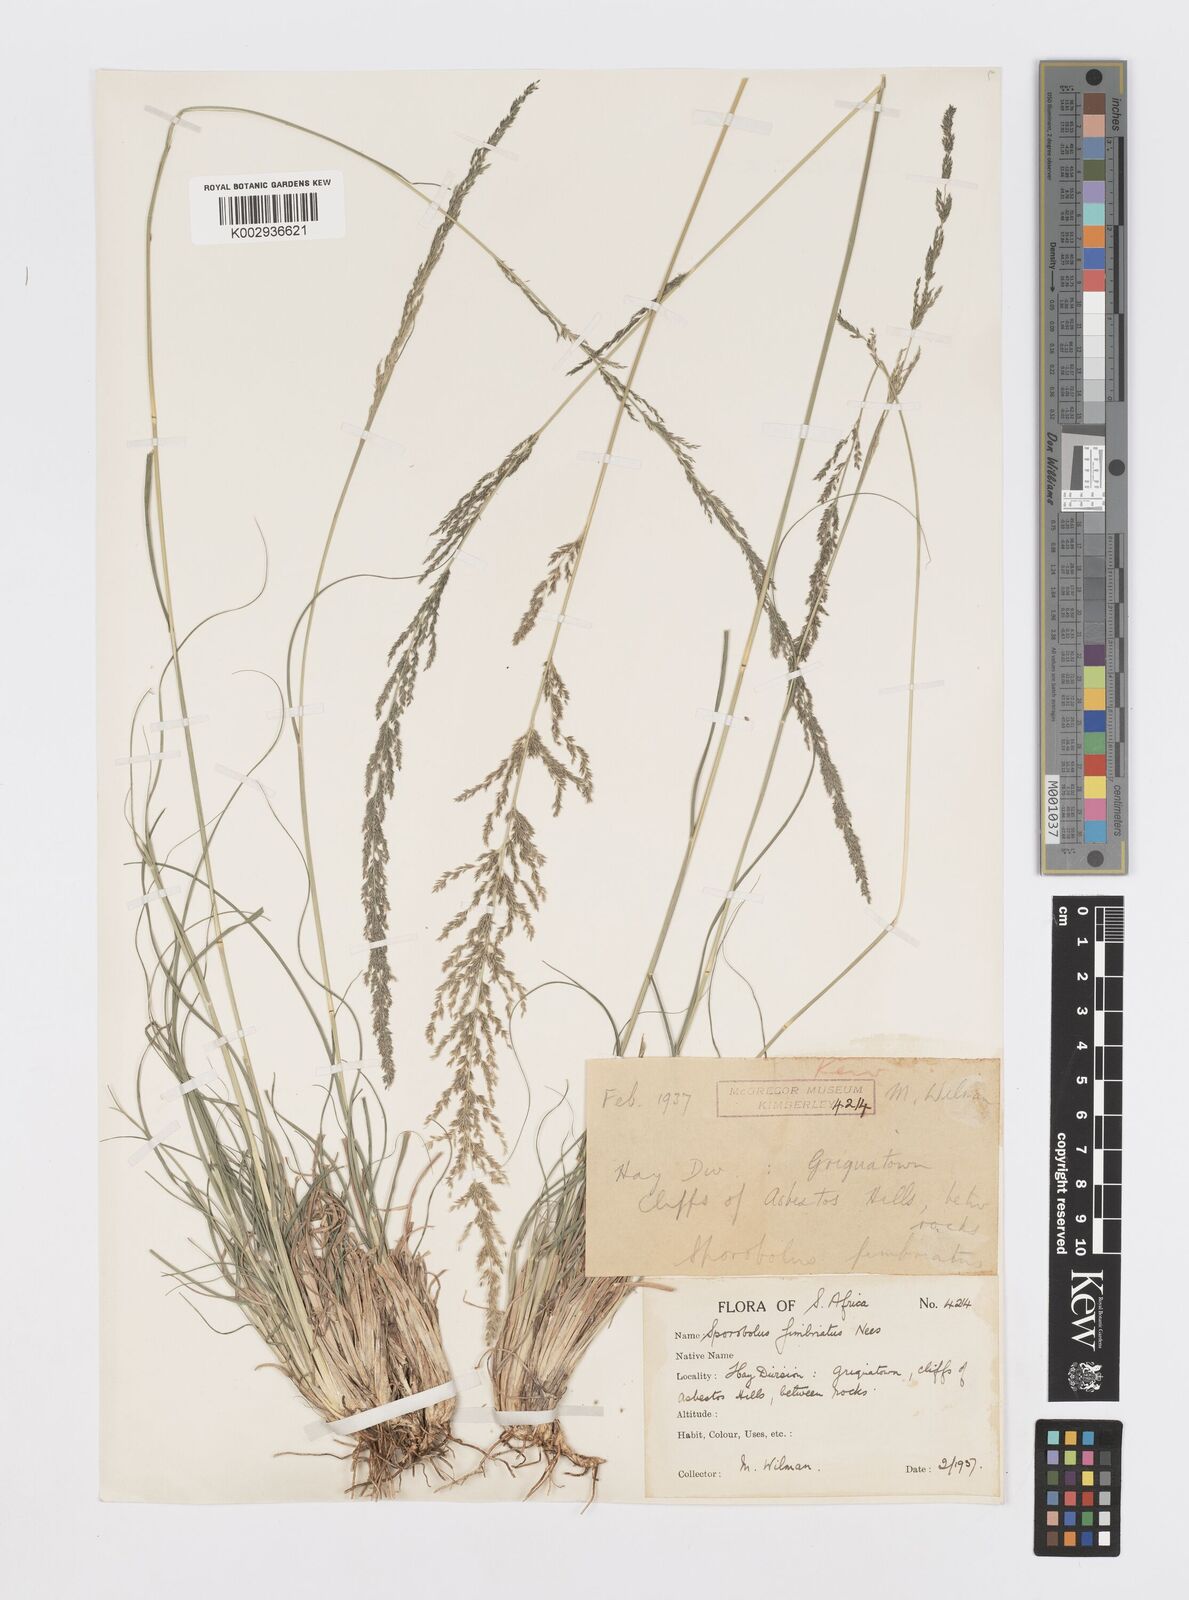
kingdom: Plantae
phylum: Tracheophyta
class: Liliopsida
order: Poales
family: Poaceae
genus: Sporobolus
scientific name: Sporobolus fimbriatus
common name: Fringed dropseed
